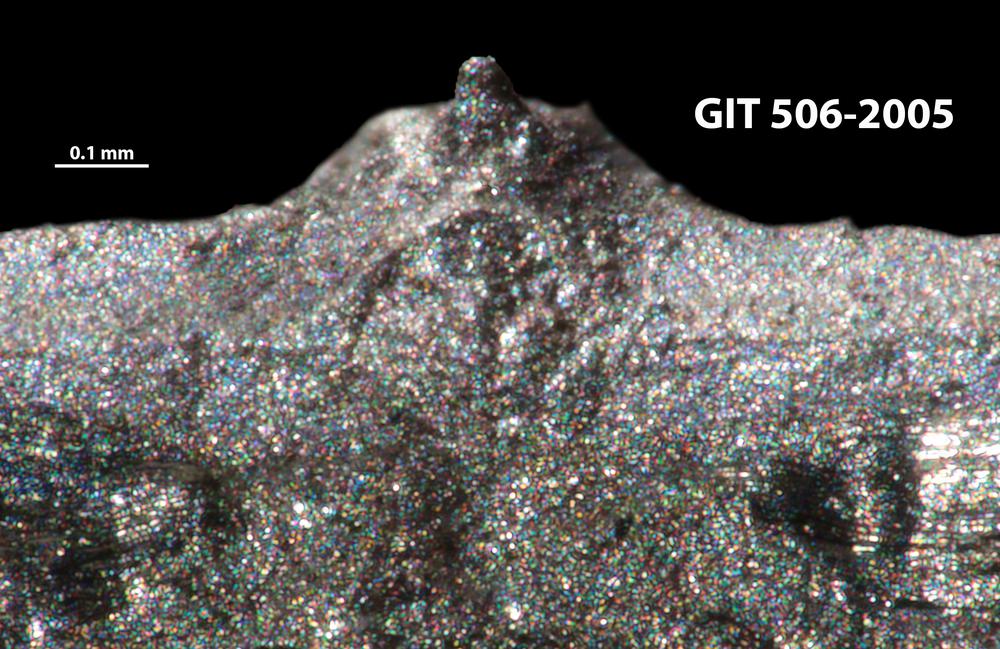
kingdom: Animalia
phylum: Brachiopoda
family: Sowerbyellidae
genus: Jonesea
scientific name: Jonesea Leptaena grayi
